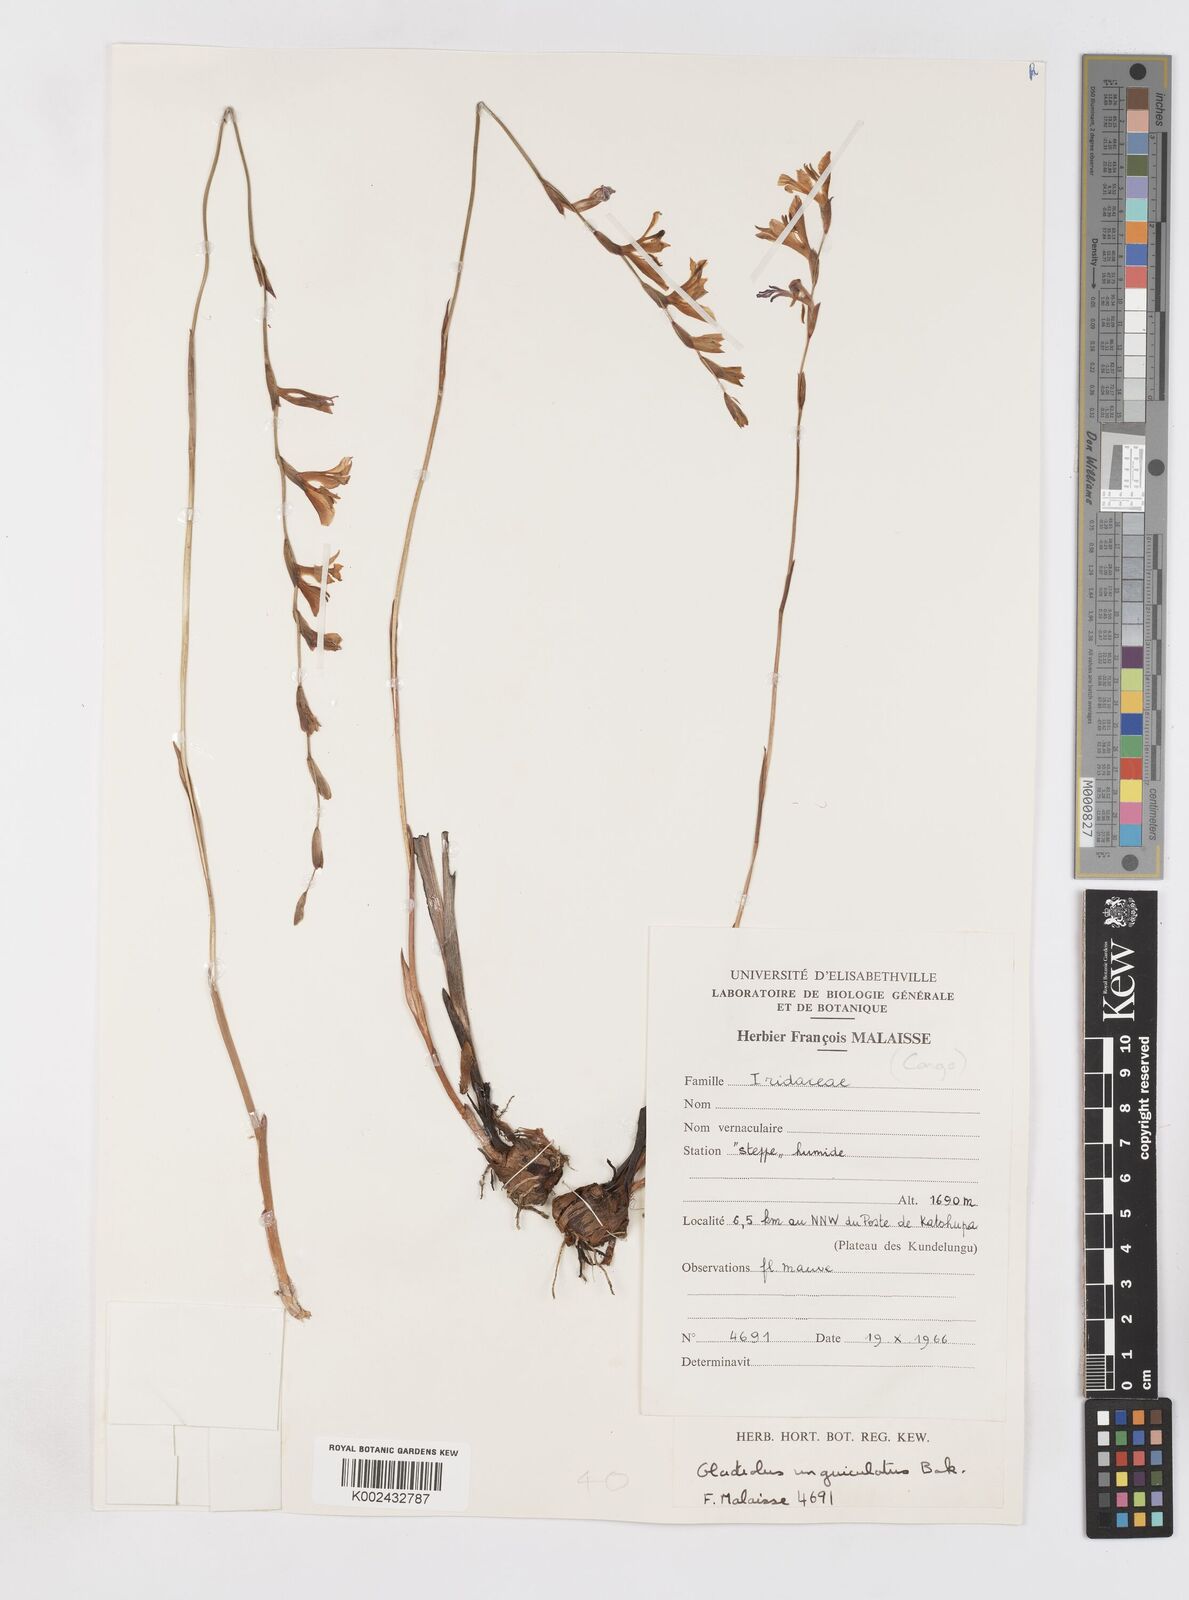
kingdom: Plantae
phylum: Tracheophyta
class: Liliopsida
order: Asparagales
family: Iridaceae
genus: Gladiolus
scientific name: Gladiolus unguiculatus
